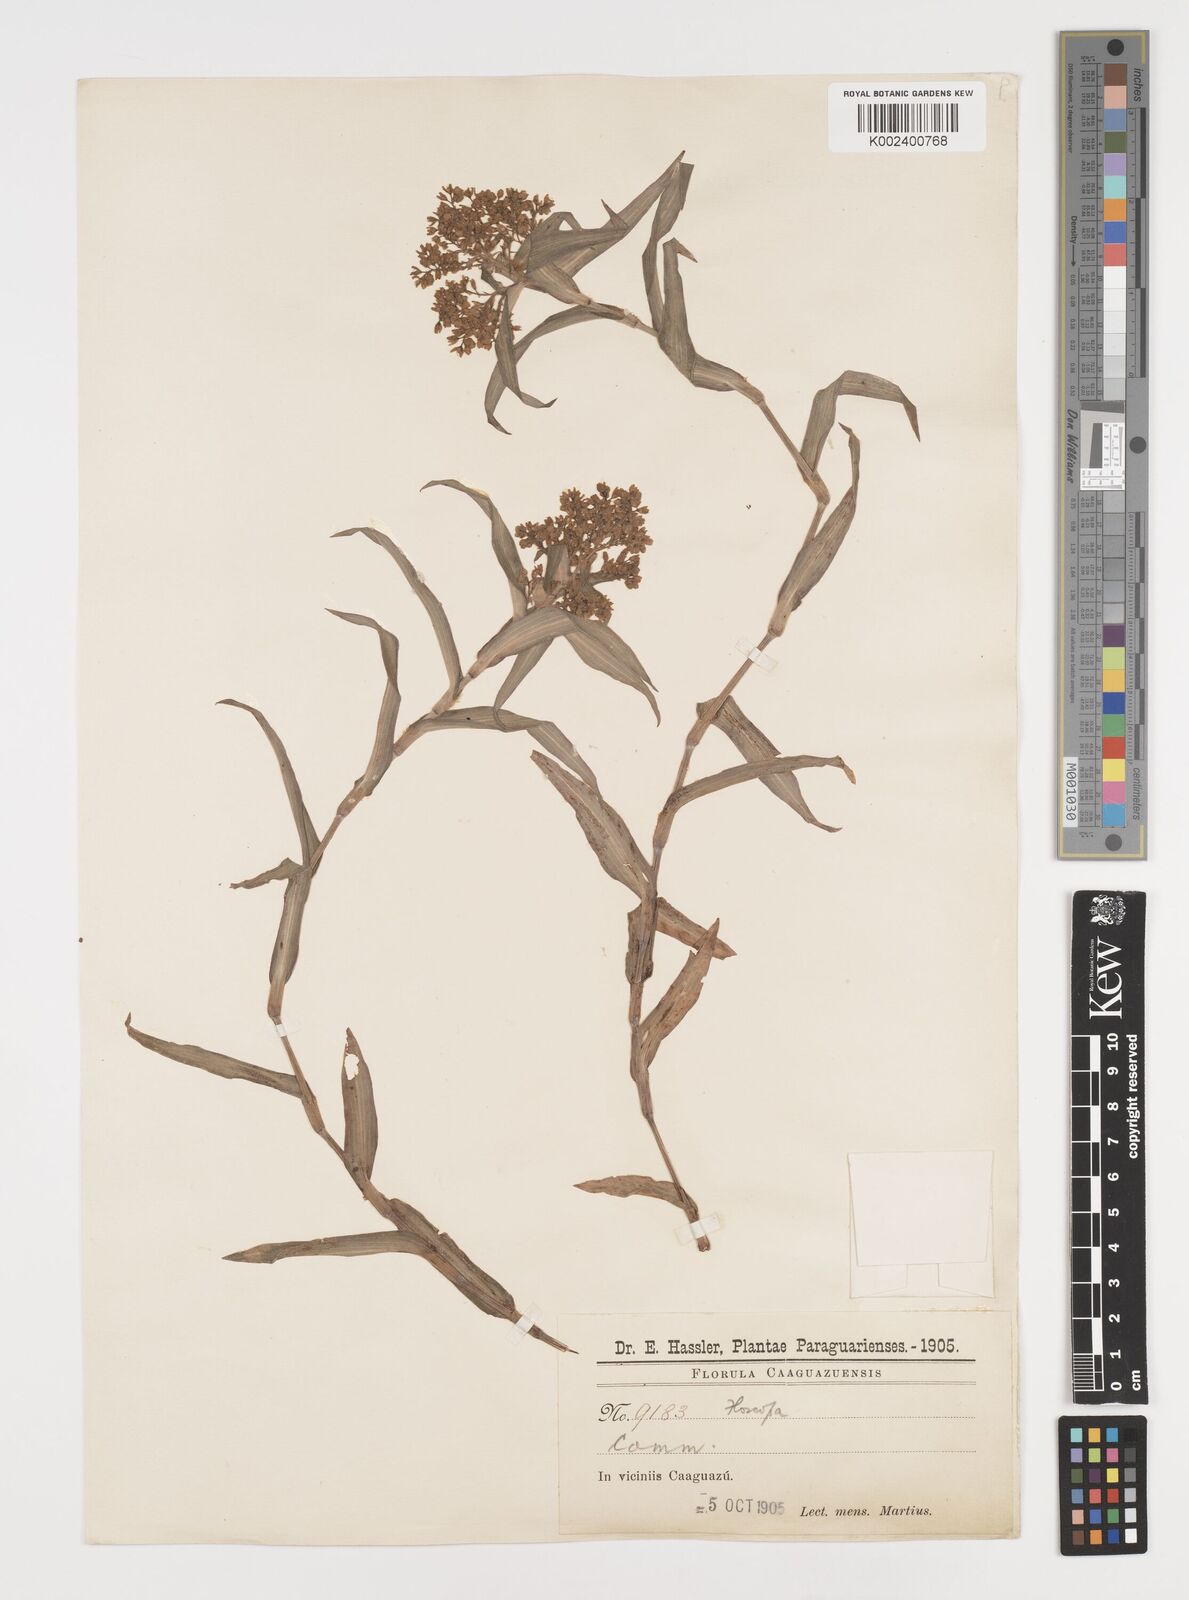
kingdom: Plantae
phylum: Tracheophyta
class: Liliopsida
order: Commelinales
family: Commelinaceae
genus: Floscopa
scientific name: Floscopa glabrata
